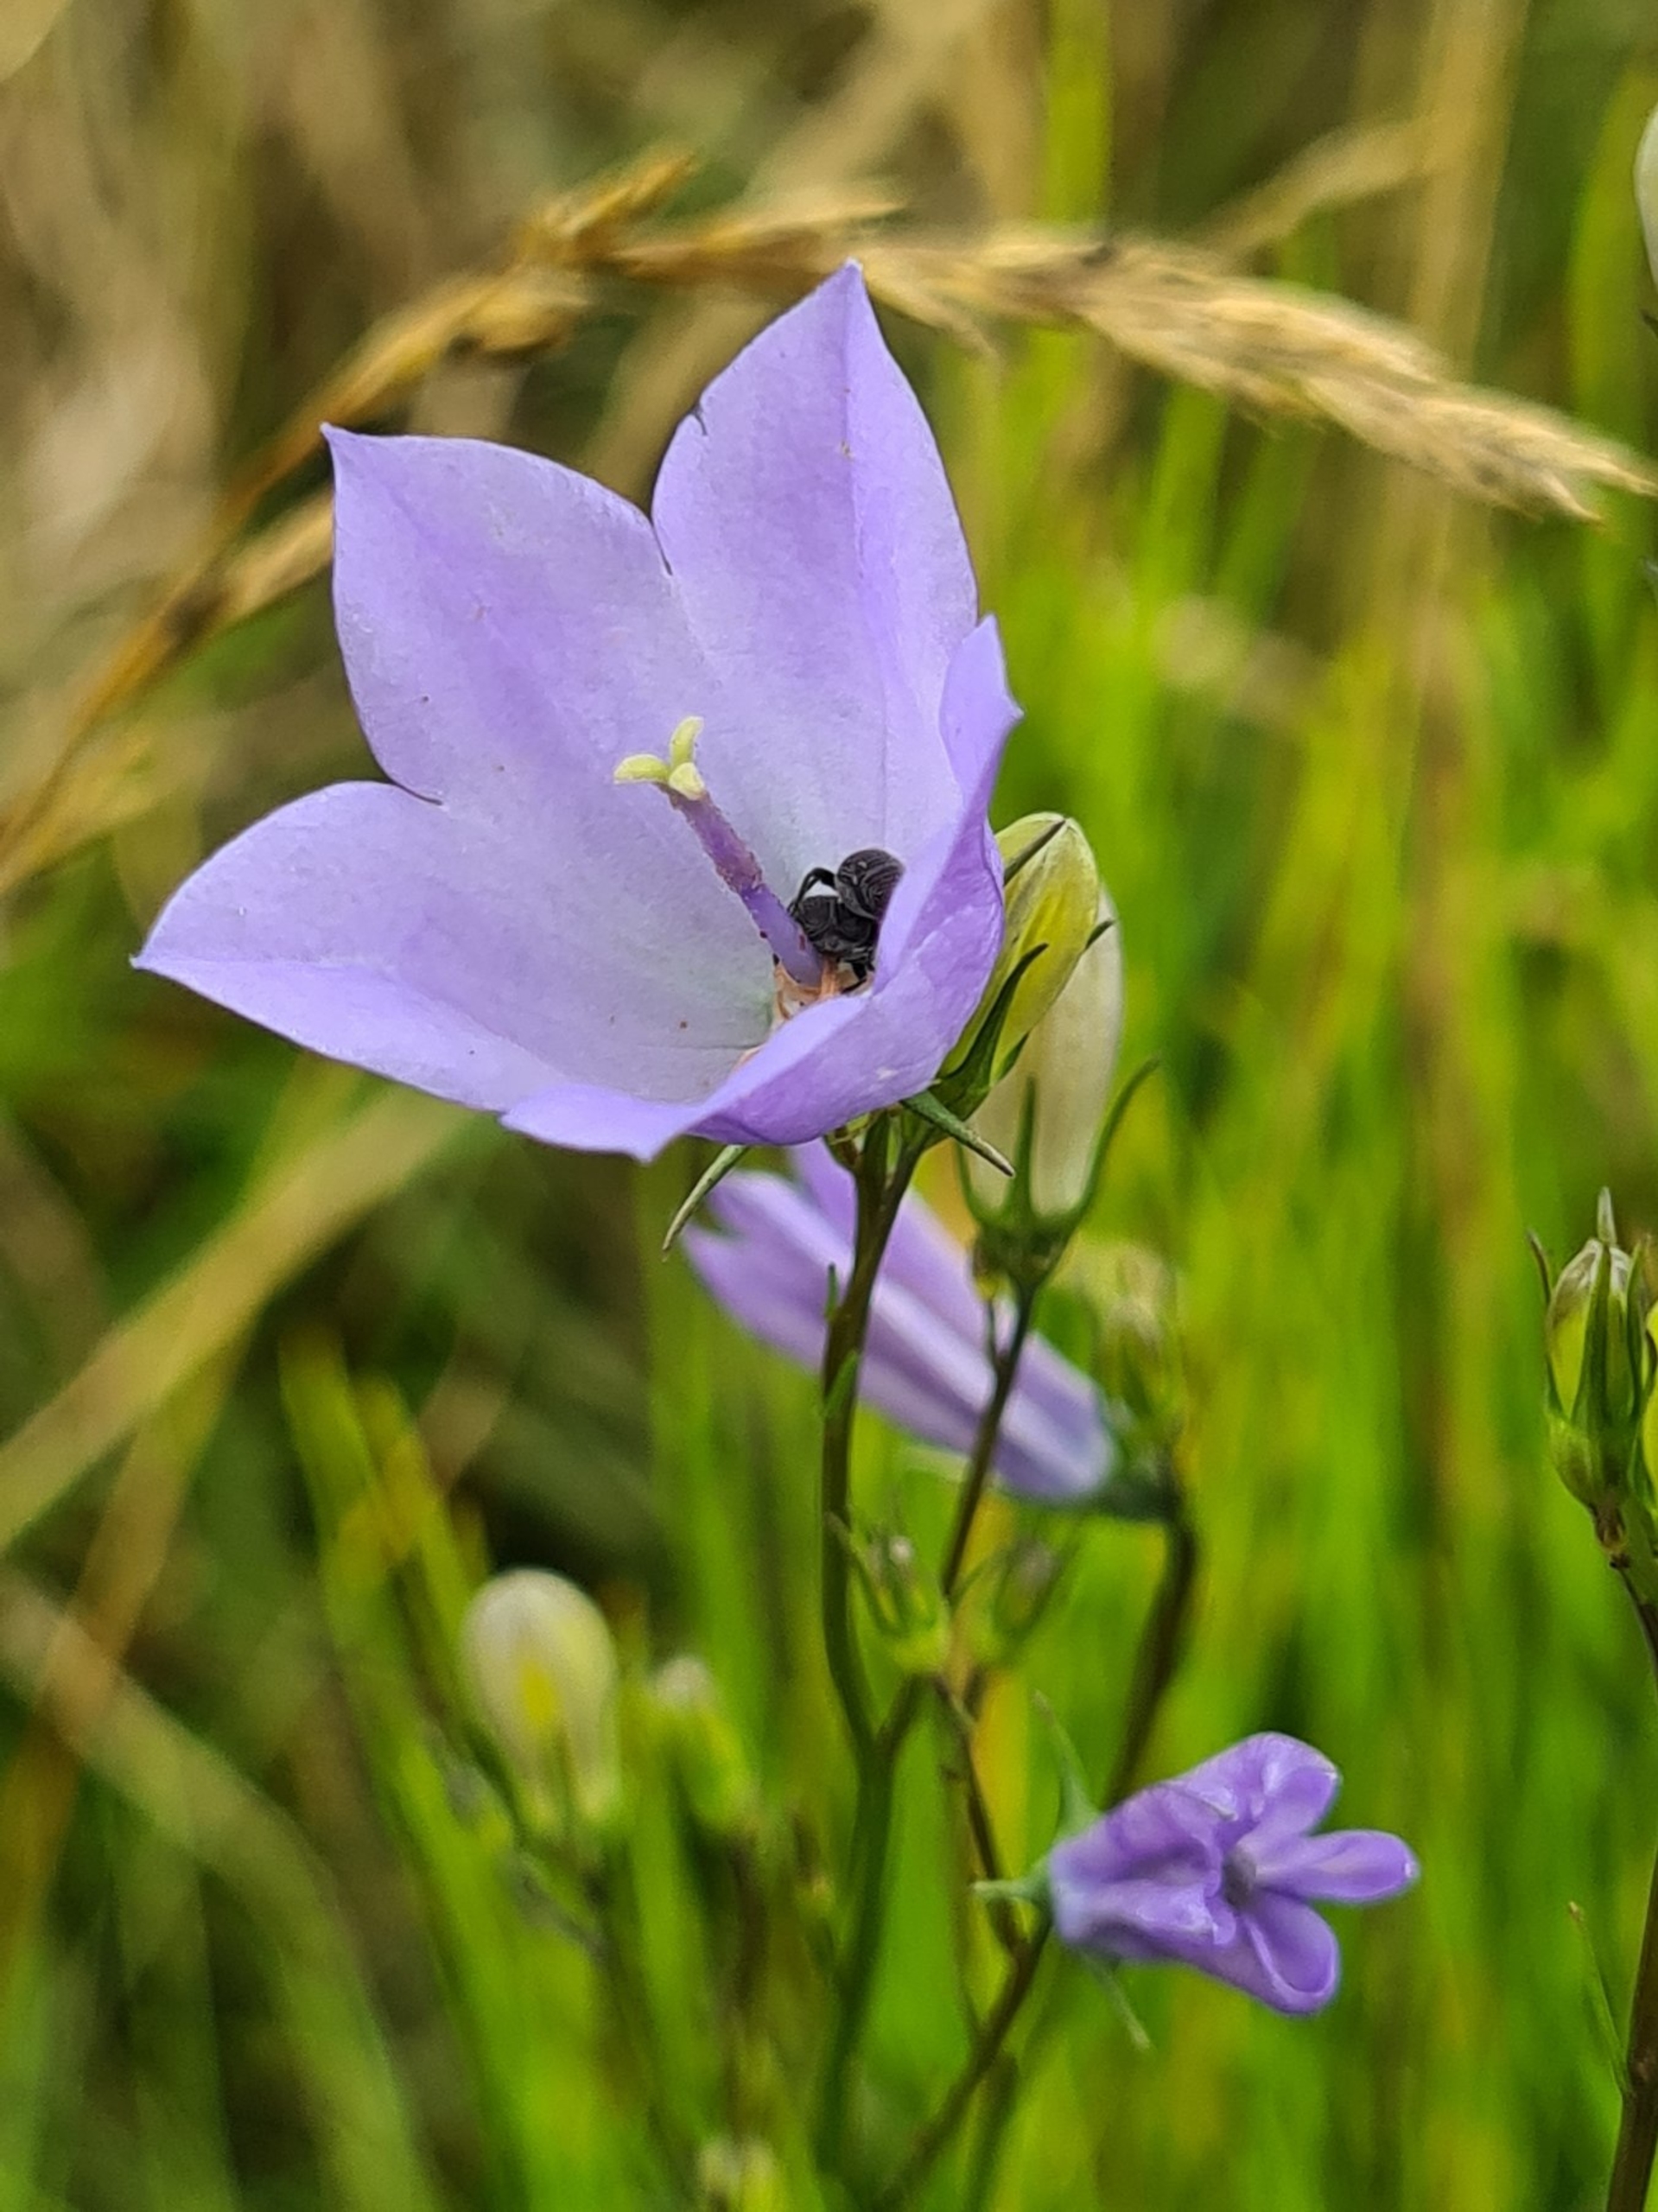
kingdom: Plantae
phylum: Tracheophyta
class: Magnoliopsida
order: Asterales
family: Campanulaceae
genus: Campanula
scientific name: Campanula rotundifolia
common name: Liden klokke
